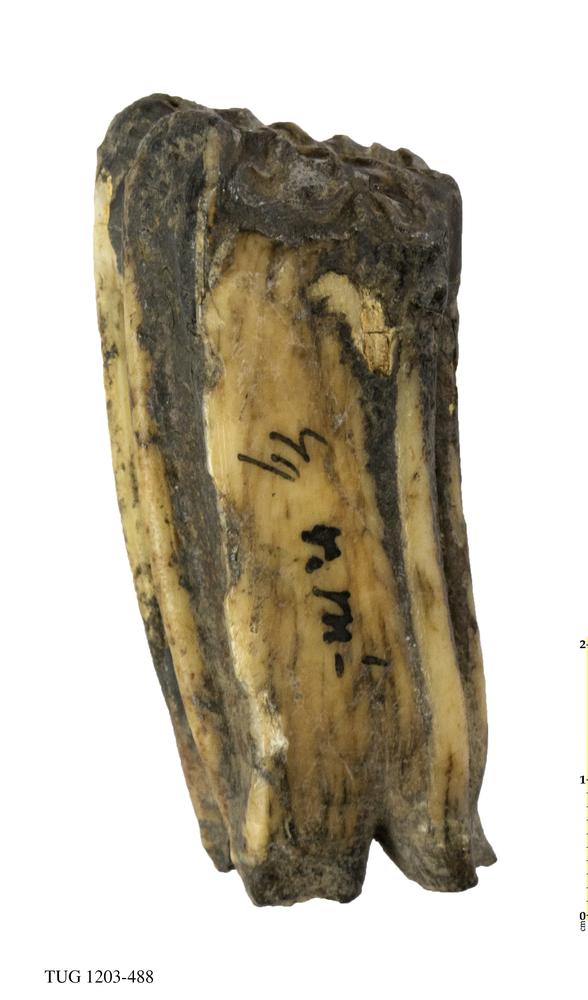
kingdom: Animalia
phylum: Chordata
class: Mammalia
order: Perissodactyla
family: Equidae
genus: Equus
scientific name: Equus caballus
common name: Horse
